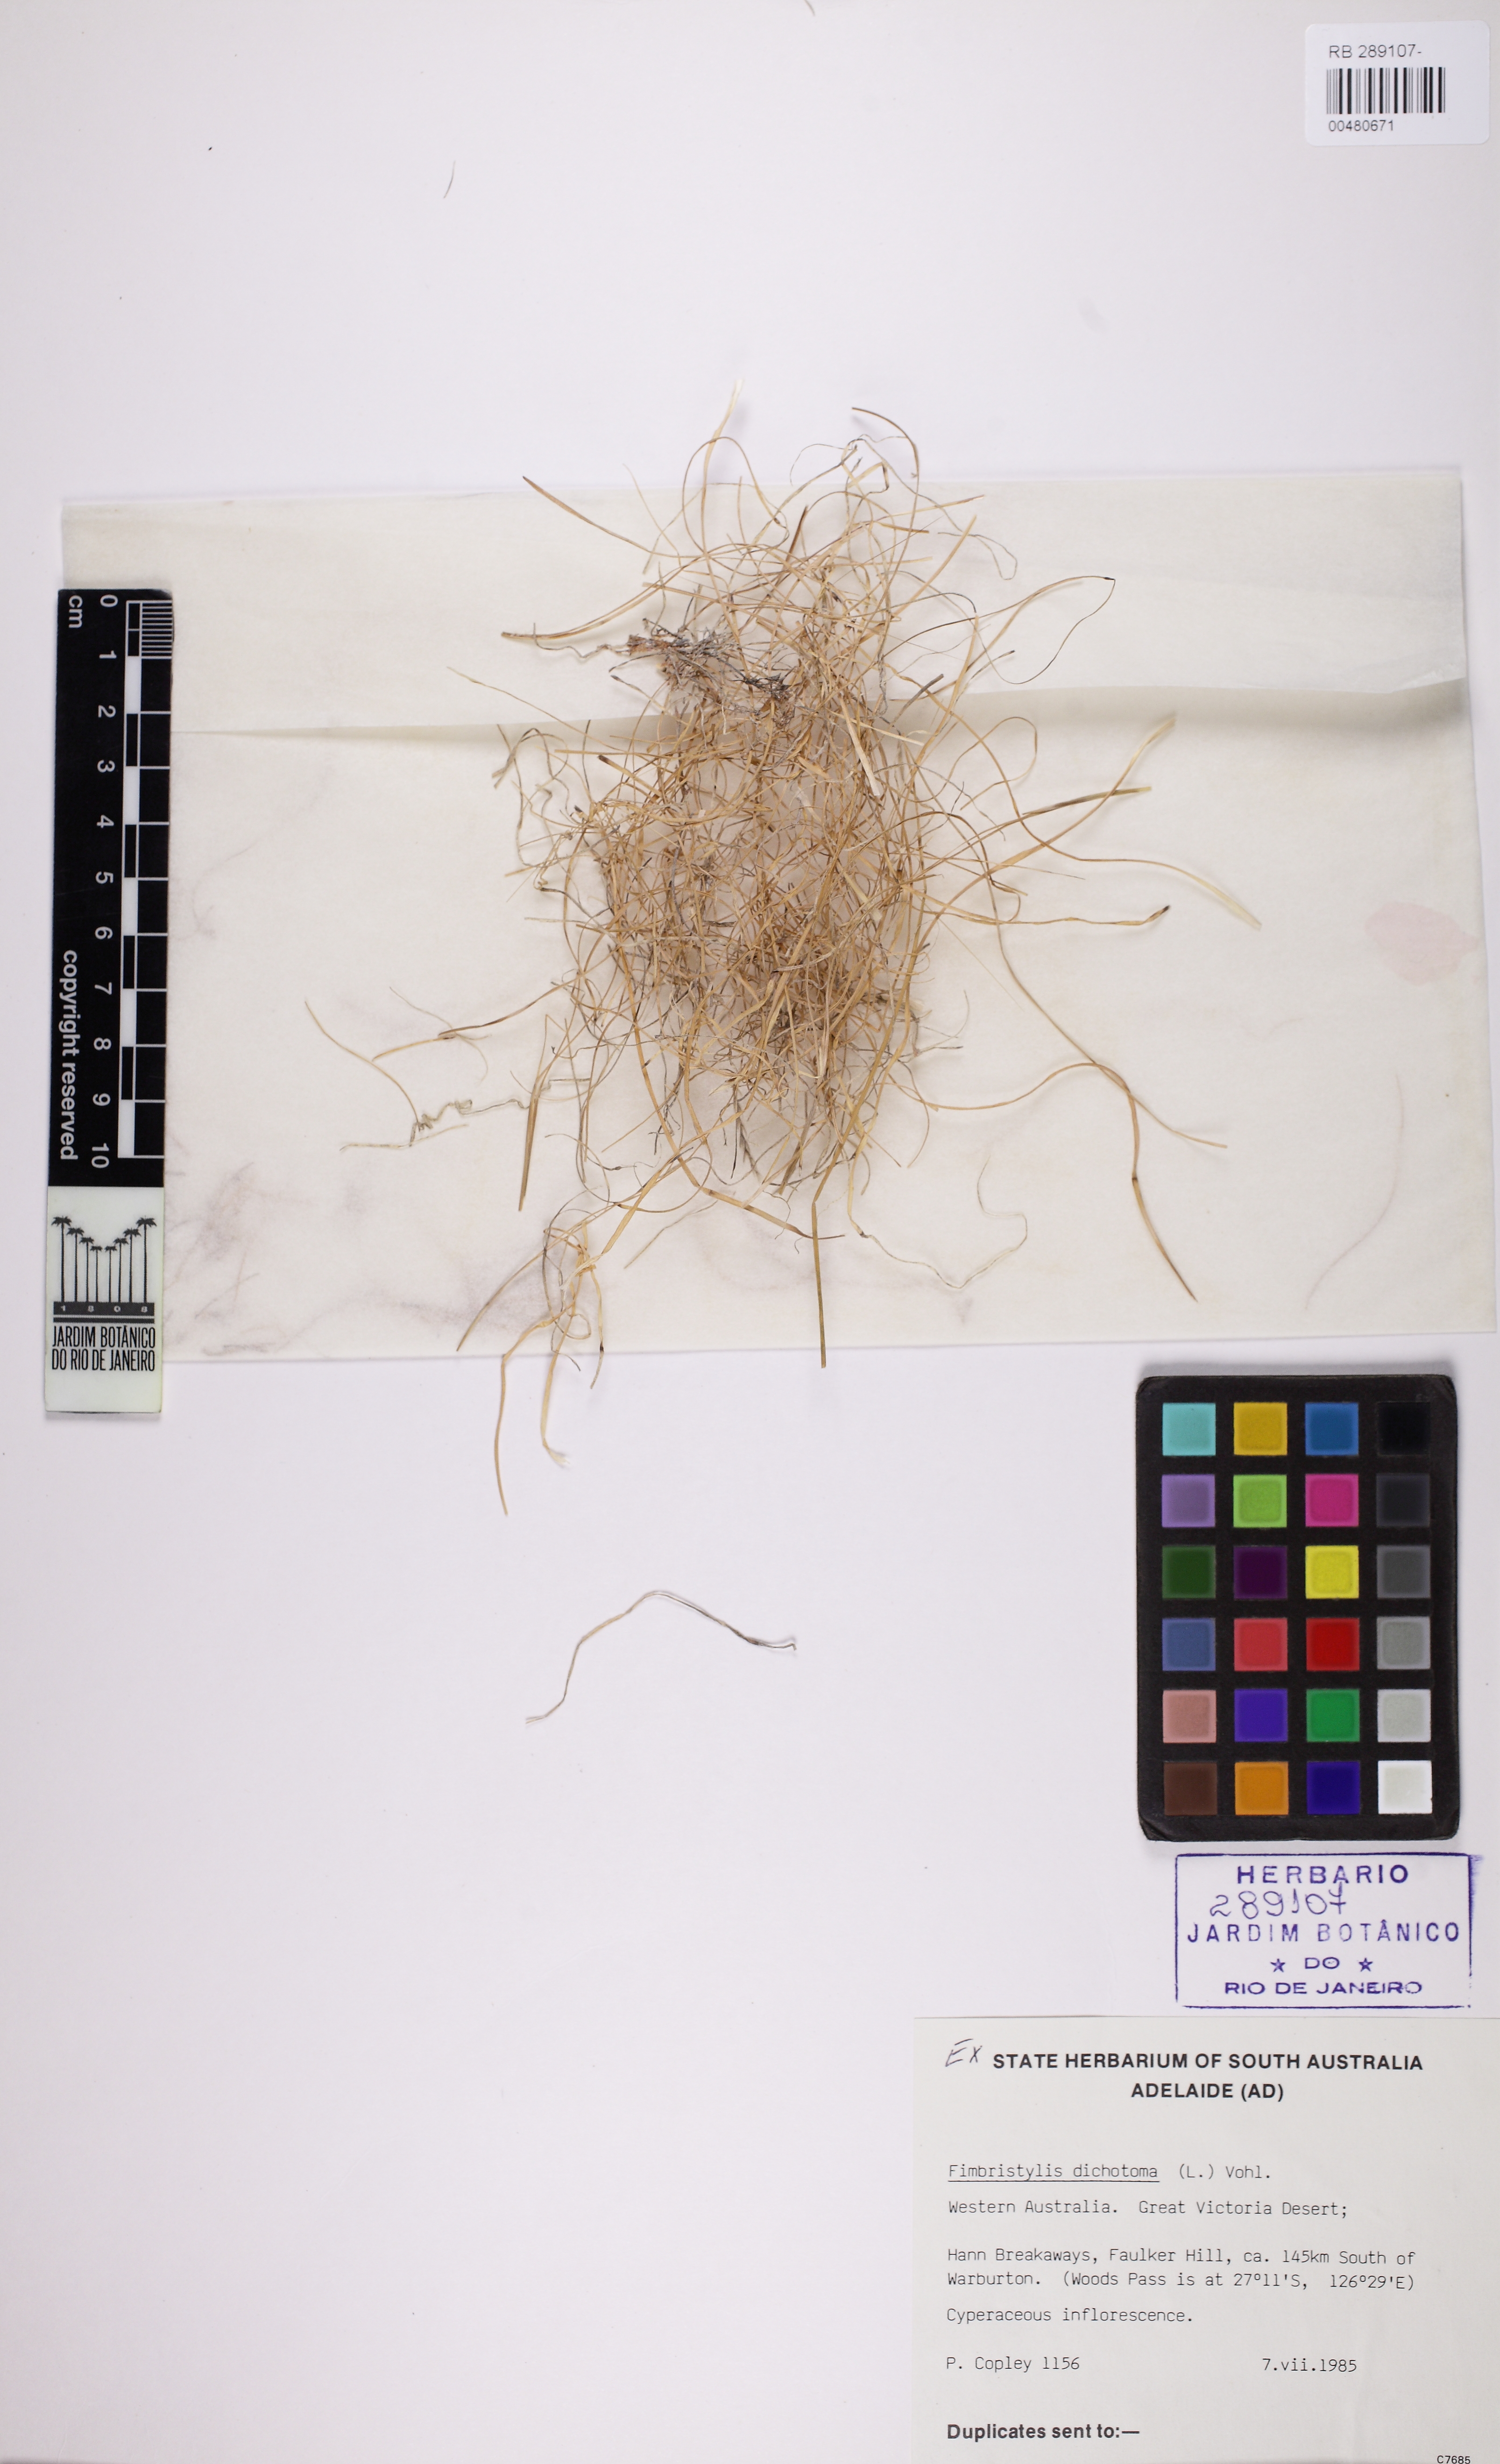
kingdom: Plantae
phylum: Tracheophyta
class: Liliopsida
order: Poales
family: Cyperaceae
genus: Fimbristylis
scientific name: Fimbristylis dichotoma
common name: Forked fimbry
